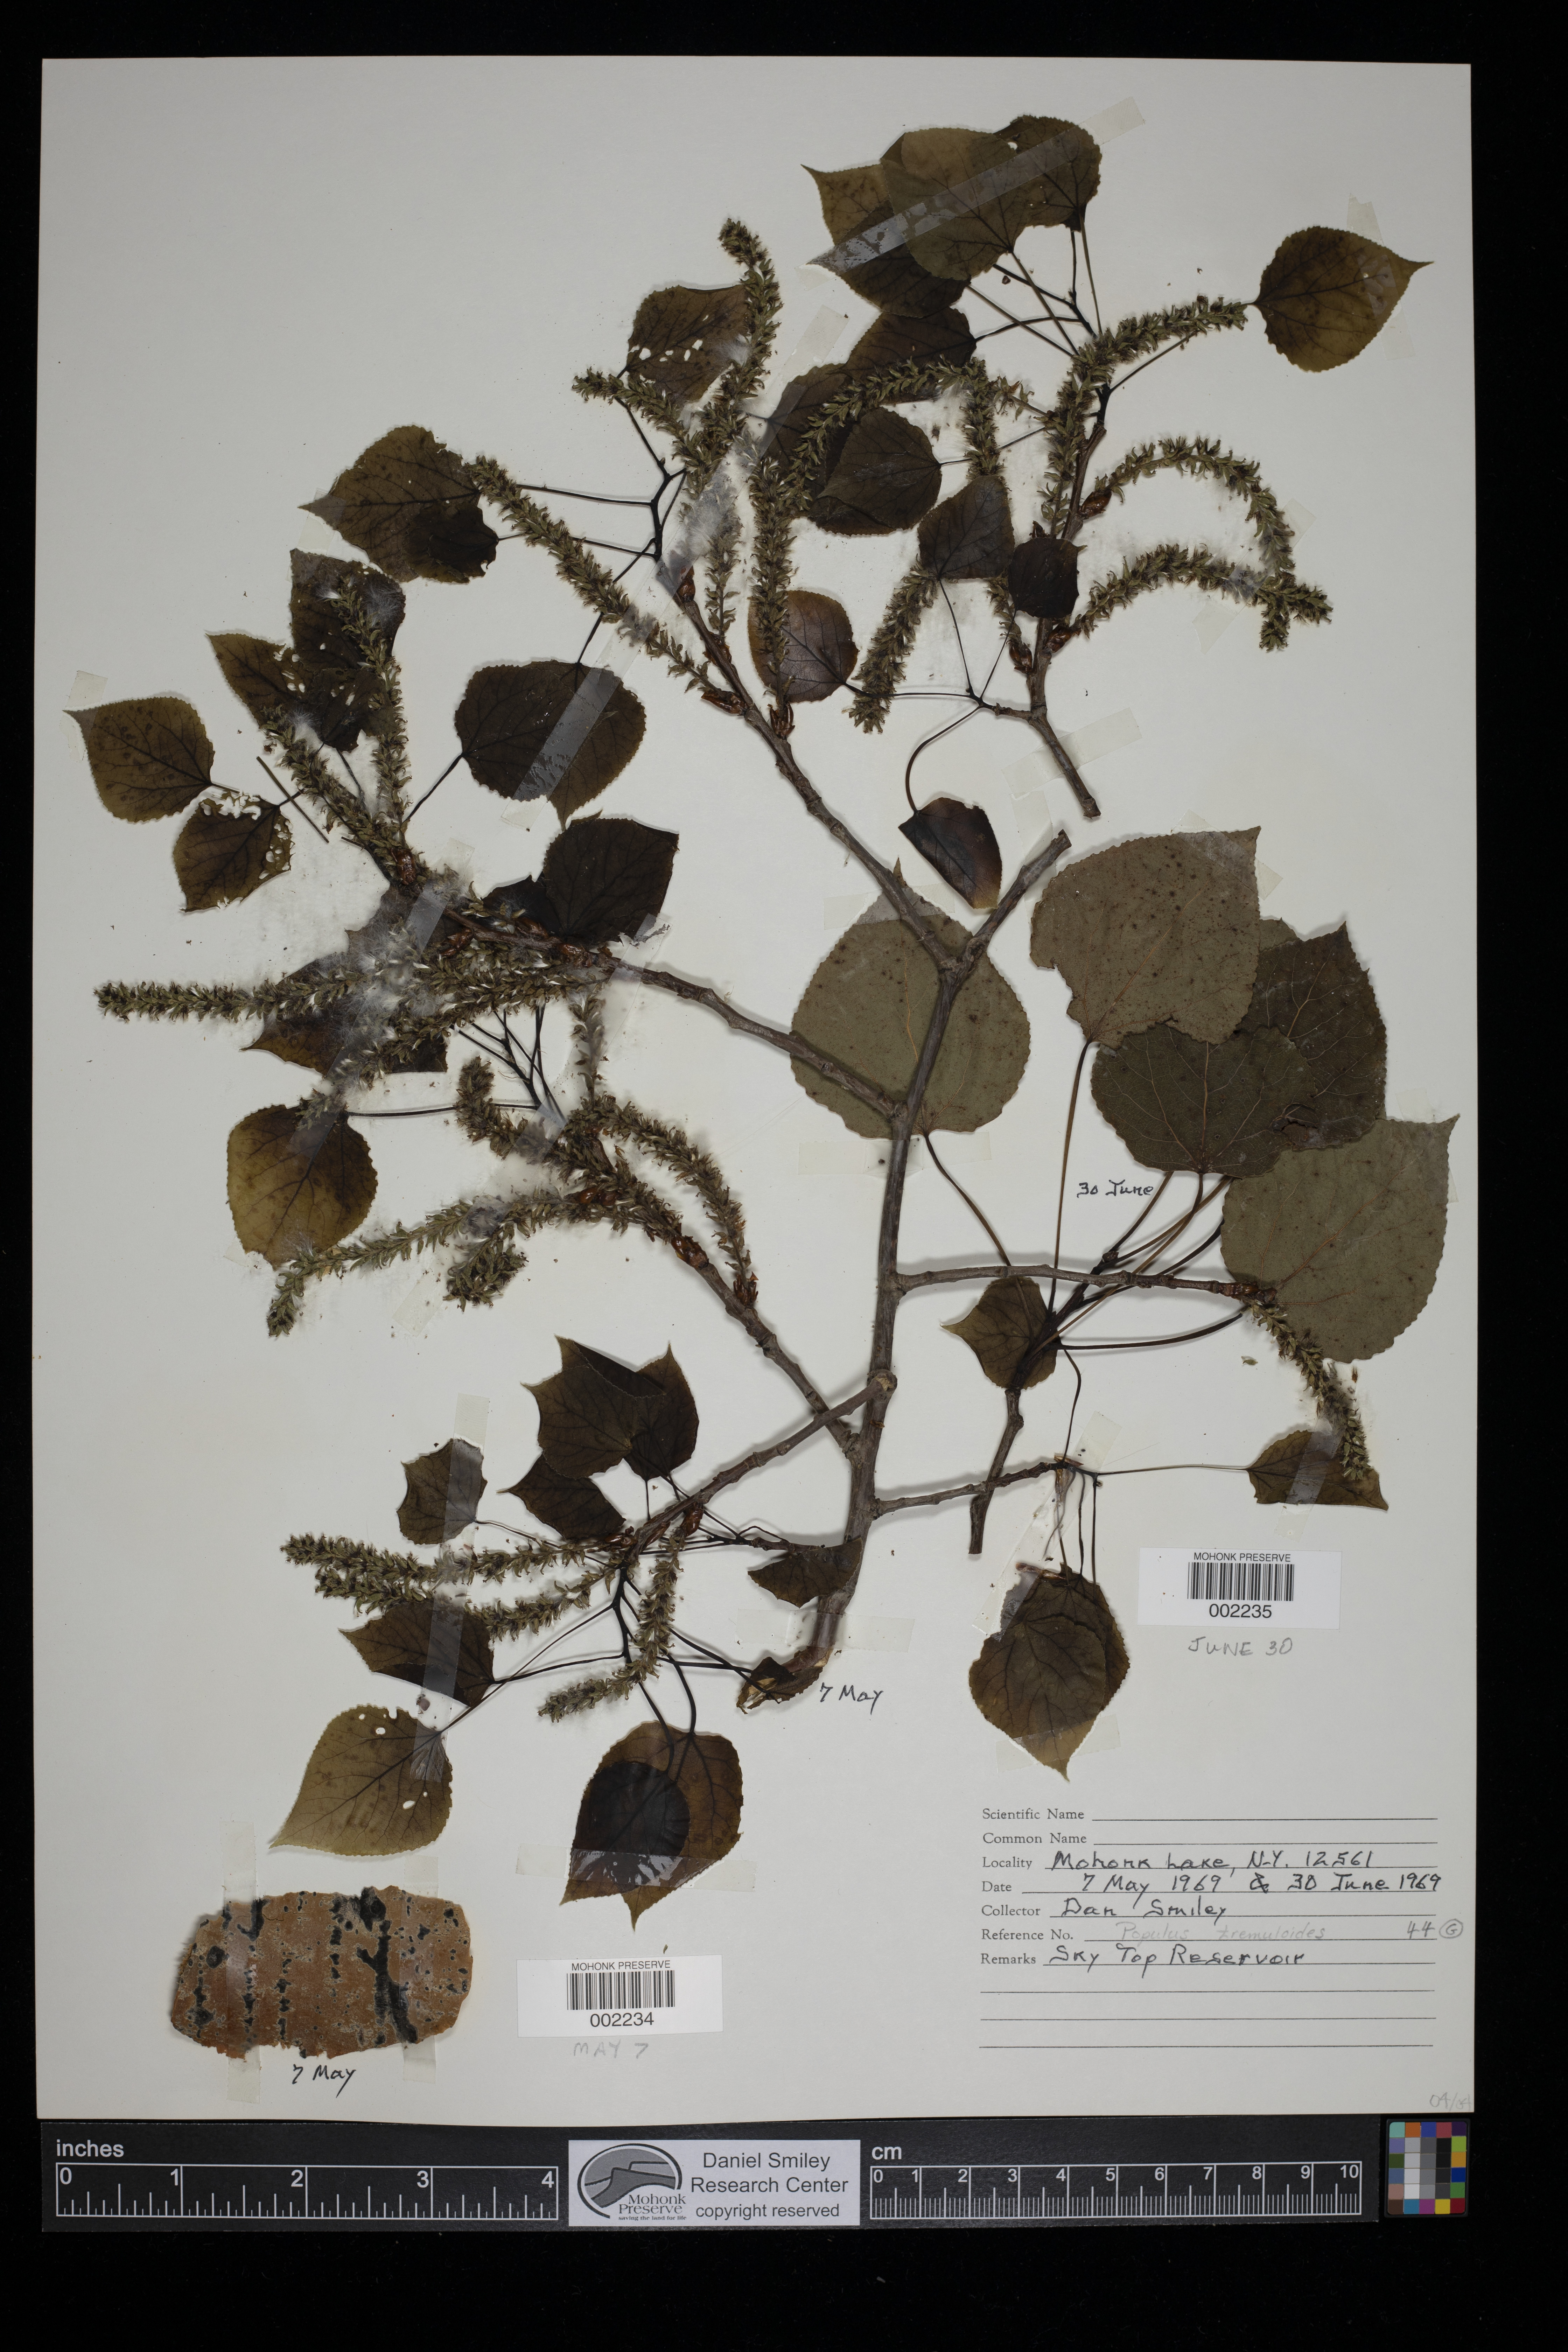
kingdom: Plantae
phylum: Tracheophyta
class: Magnoliopsida
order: Malpighiales
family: Salicaceae
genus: Populus
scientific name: Populus tremuloides
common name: Quaking aspen
